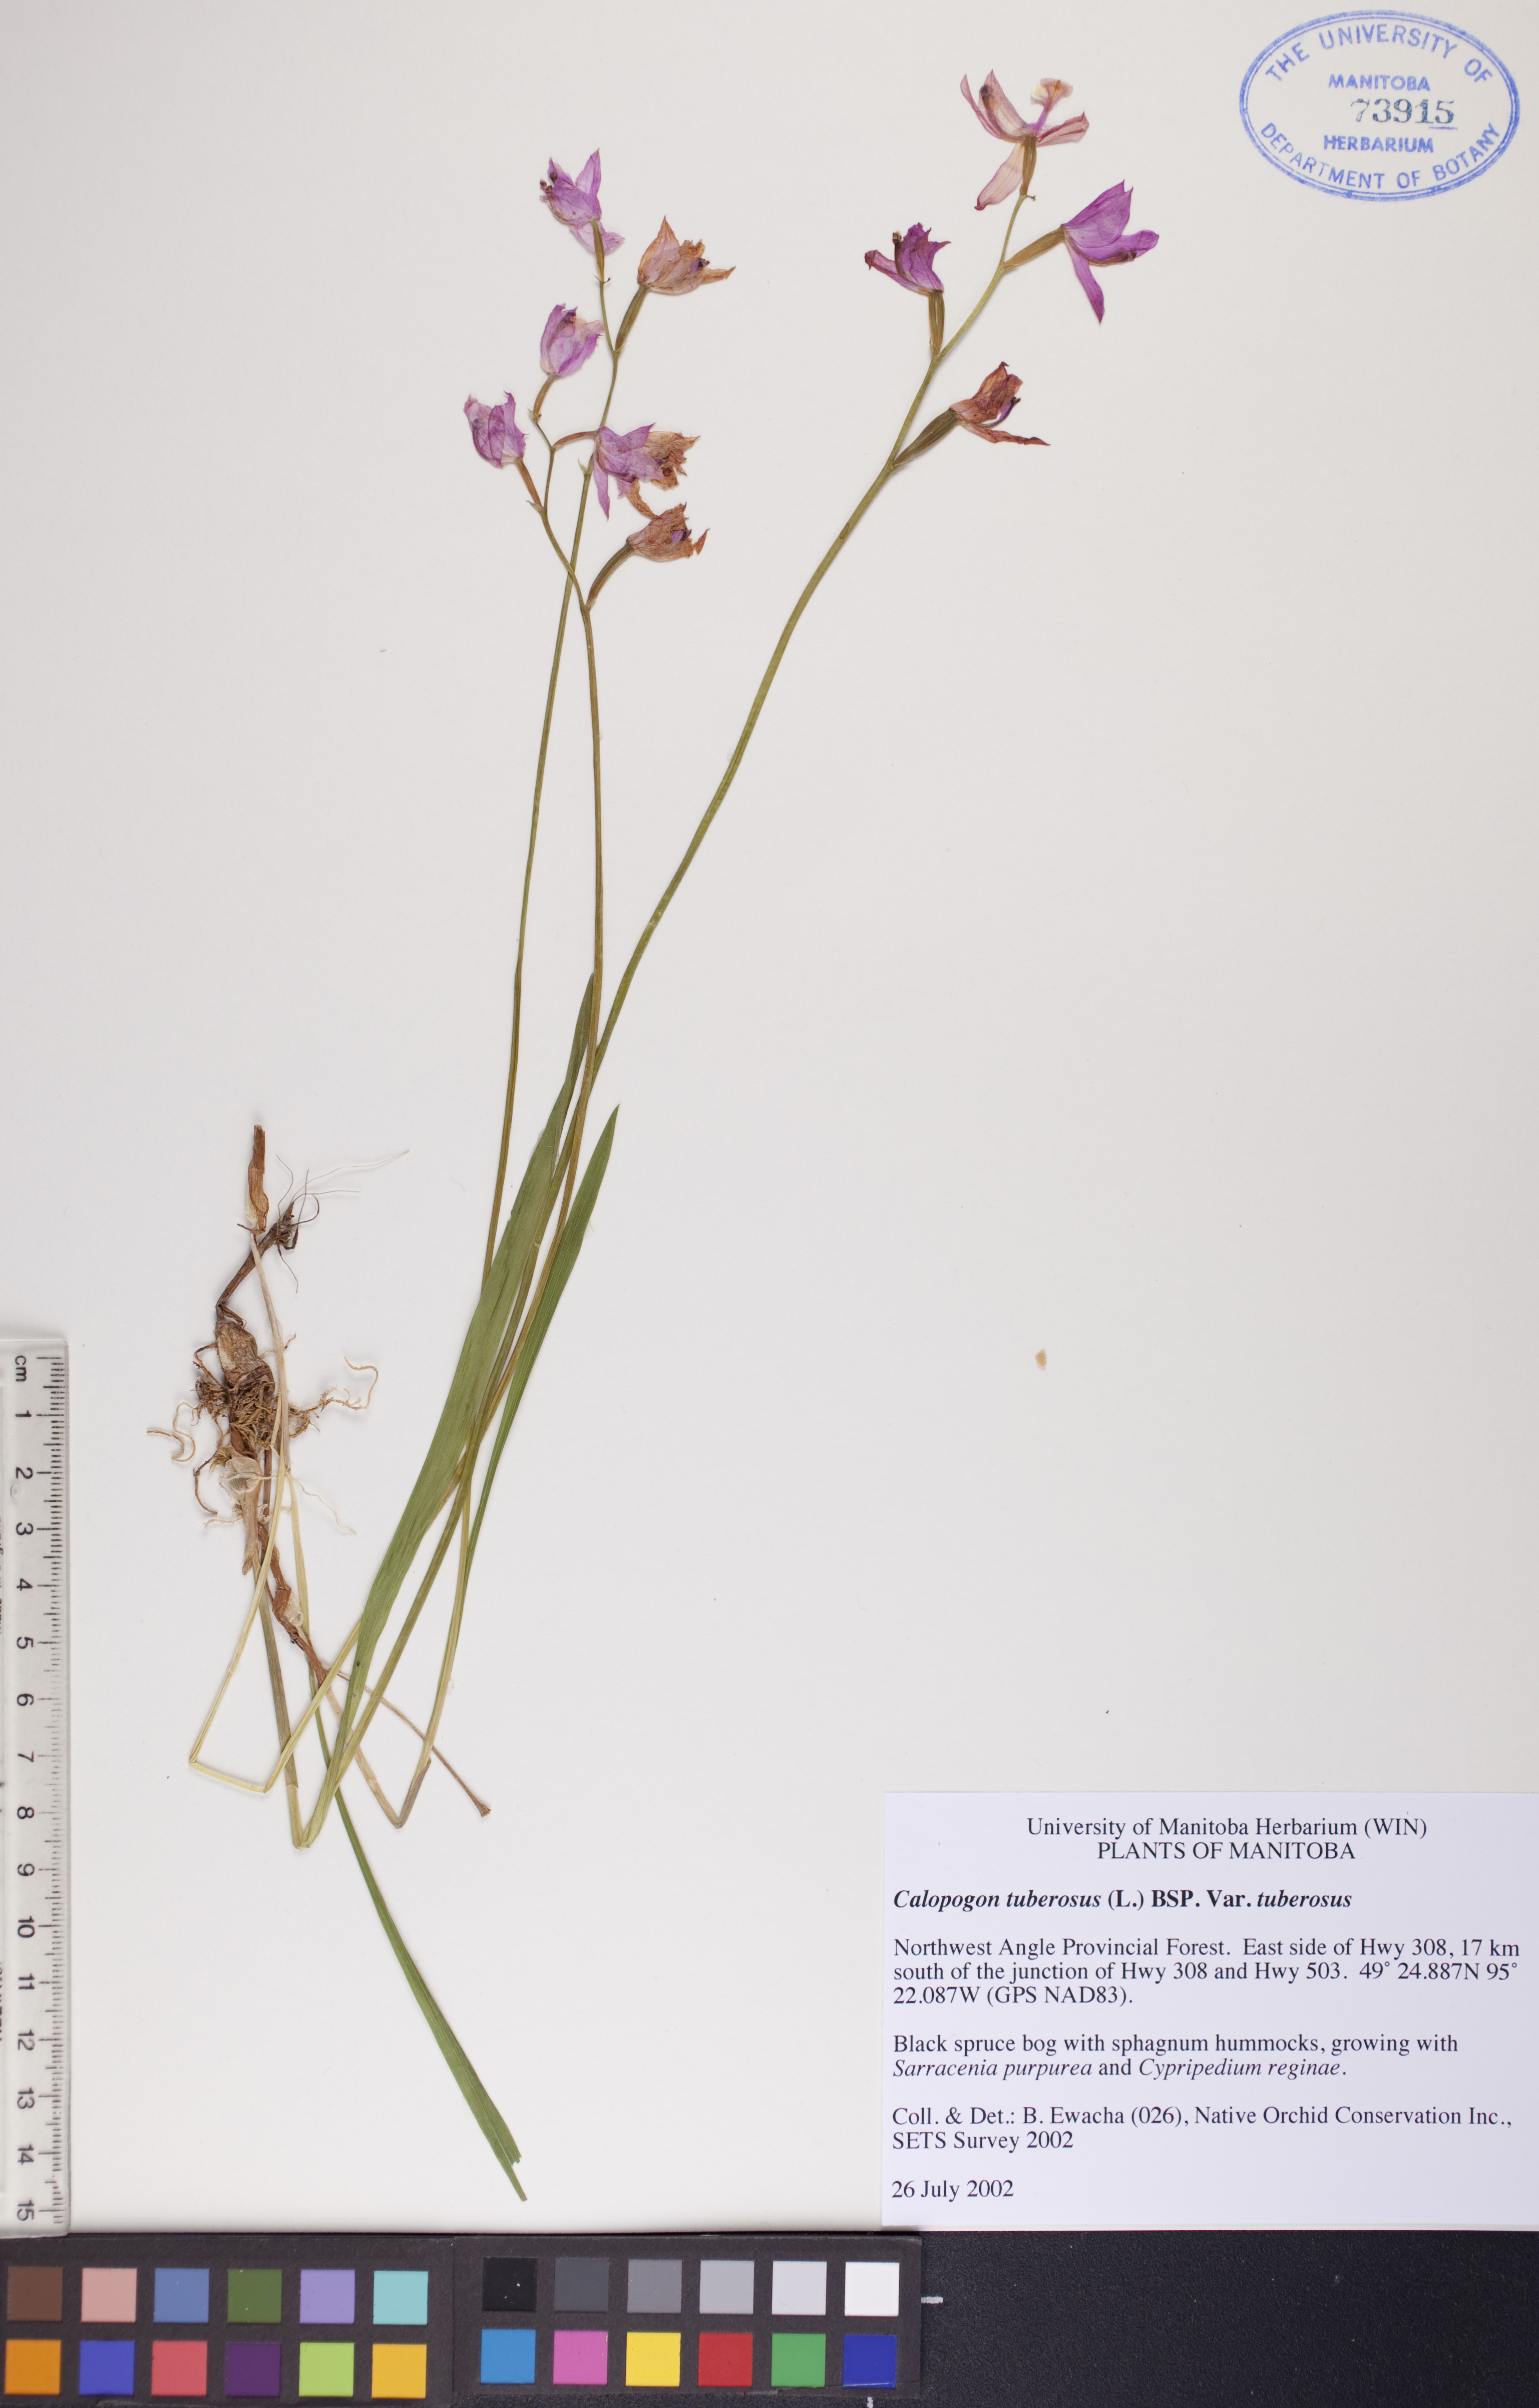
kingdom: Plantae
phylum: Tracheophyta
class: Liliopsida
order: Asparagales
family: Orchidaceae
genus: Calopogon
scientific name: Calopogon tuberosus
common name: Grass-pink
